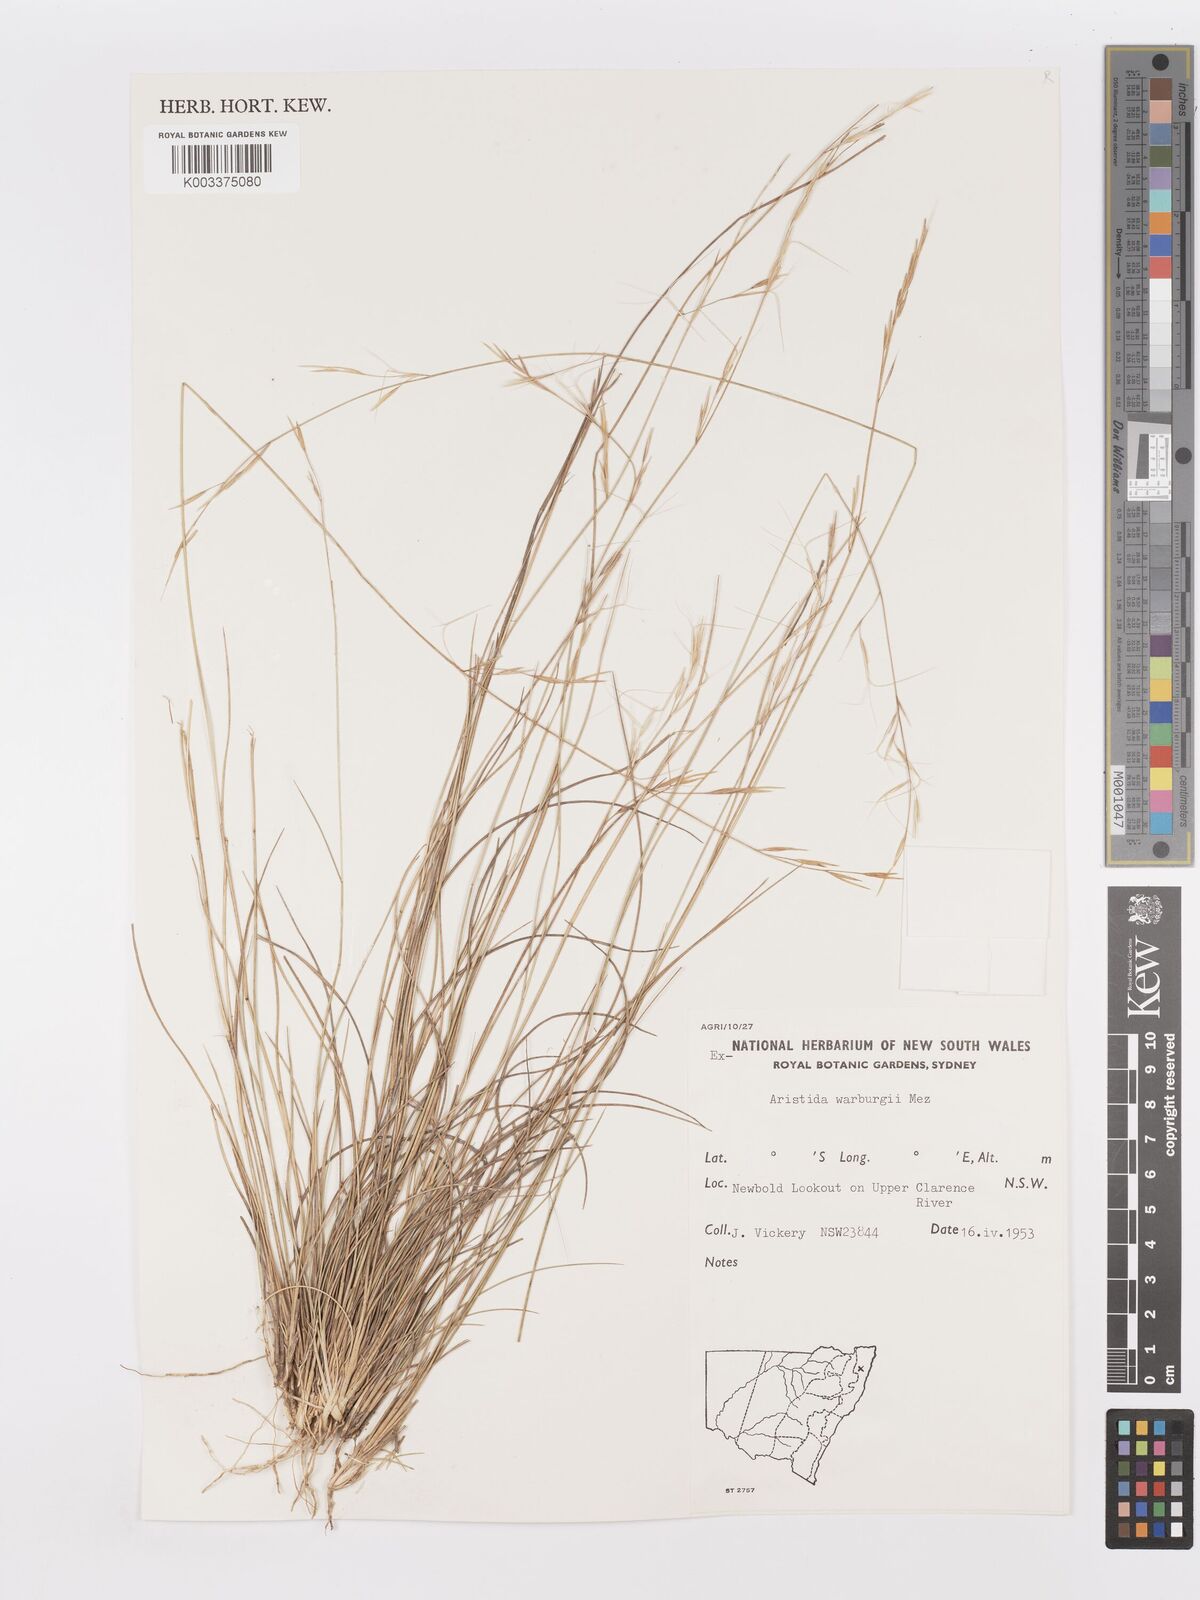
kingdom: Plantae
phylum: Tracheophyta
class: Liliopsida
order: Poales
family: Poaceae
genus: Aristida
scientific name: Aristida warburgii
